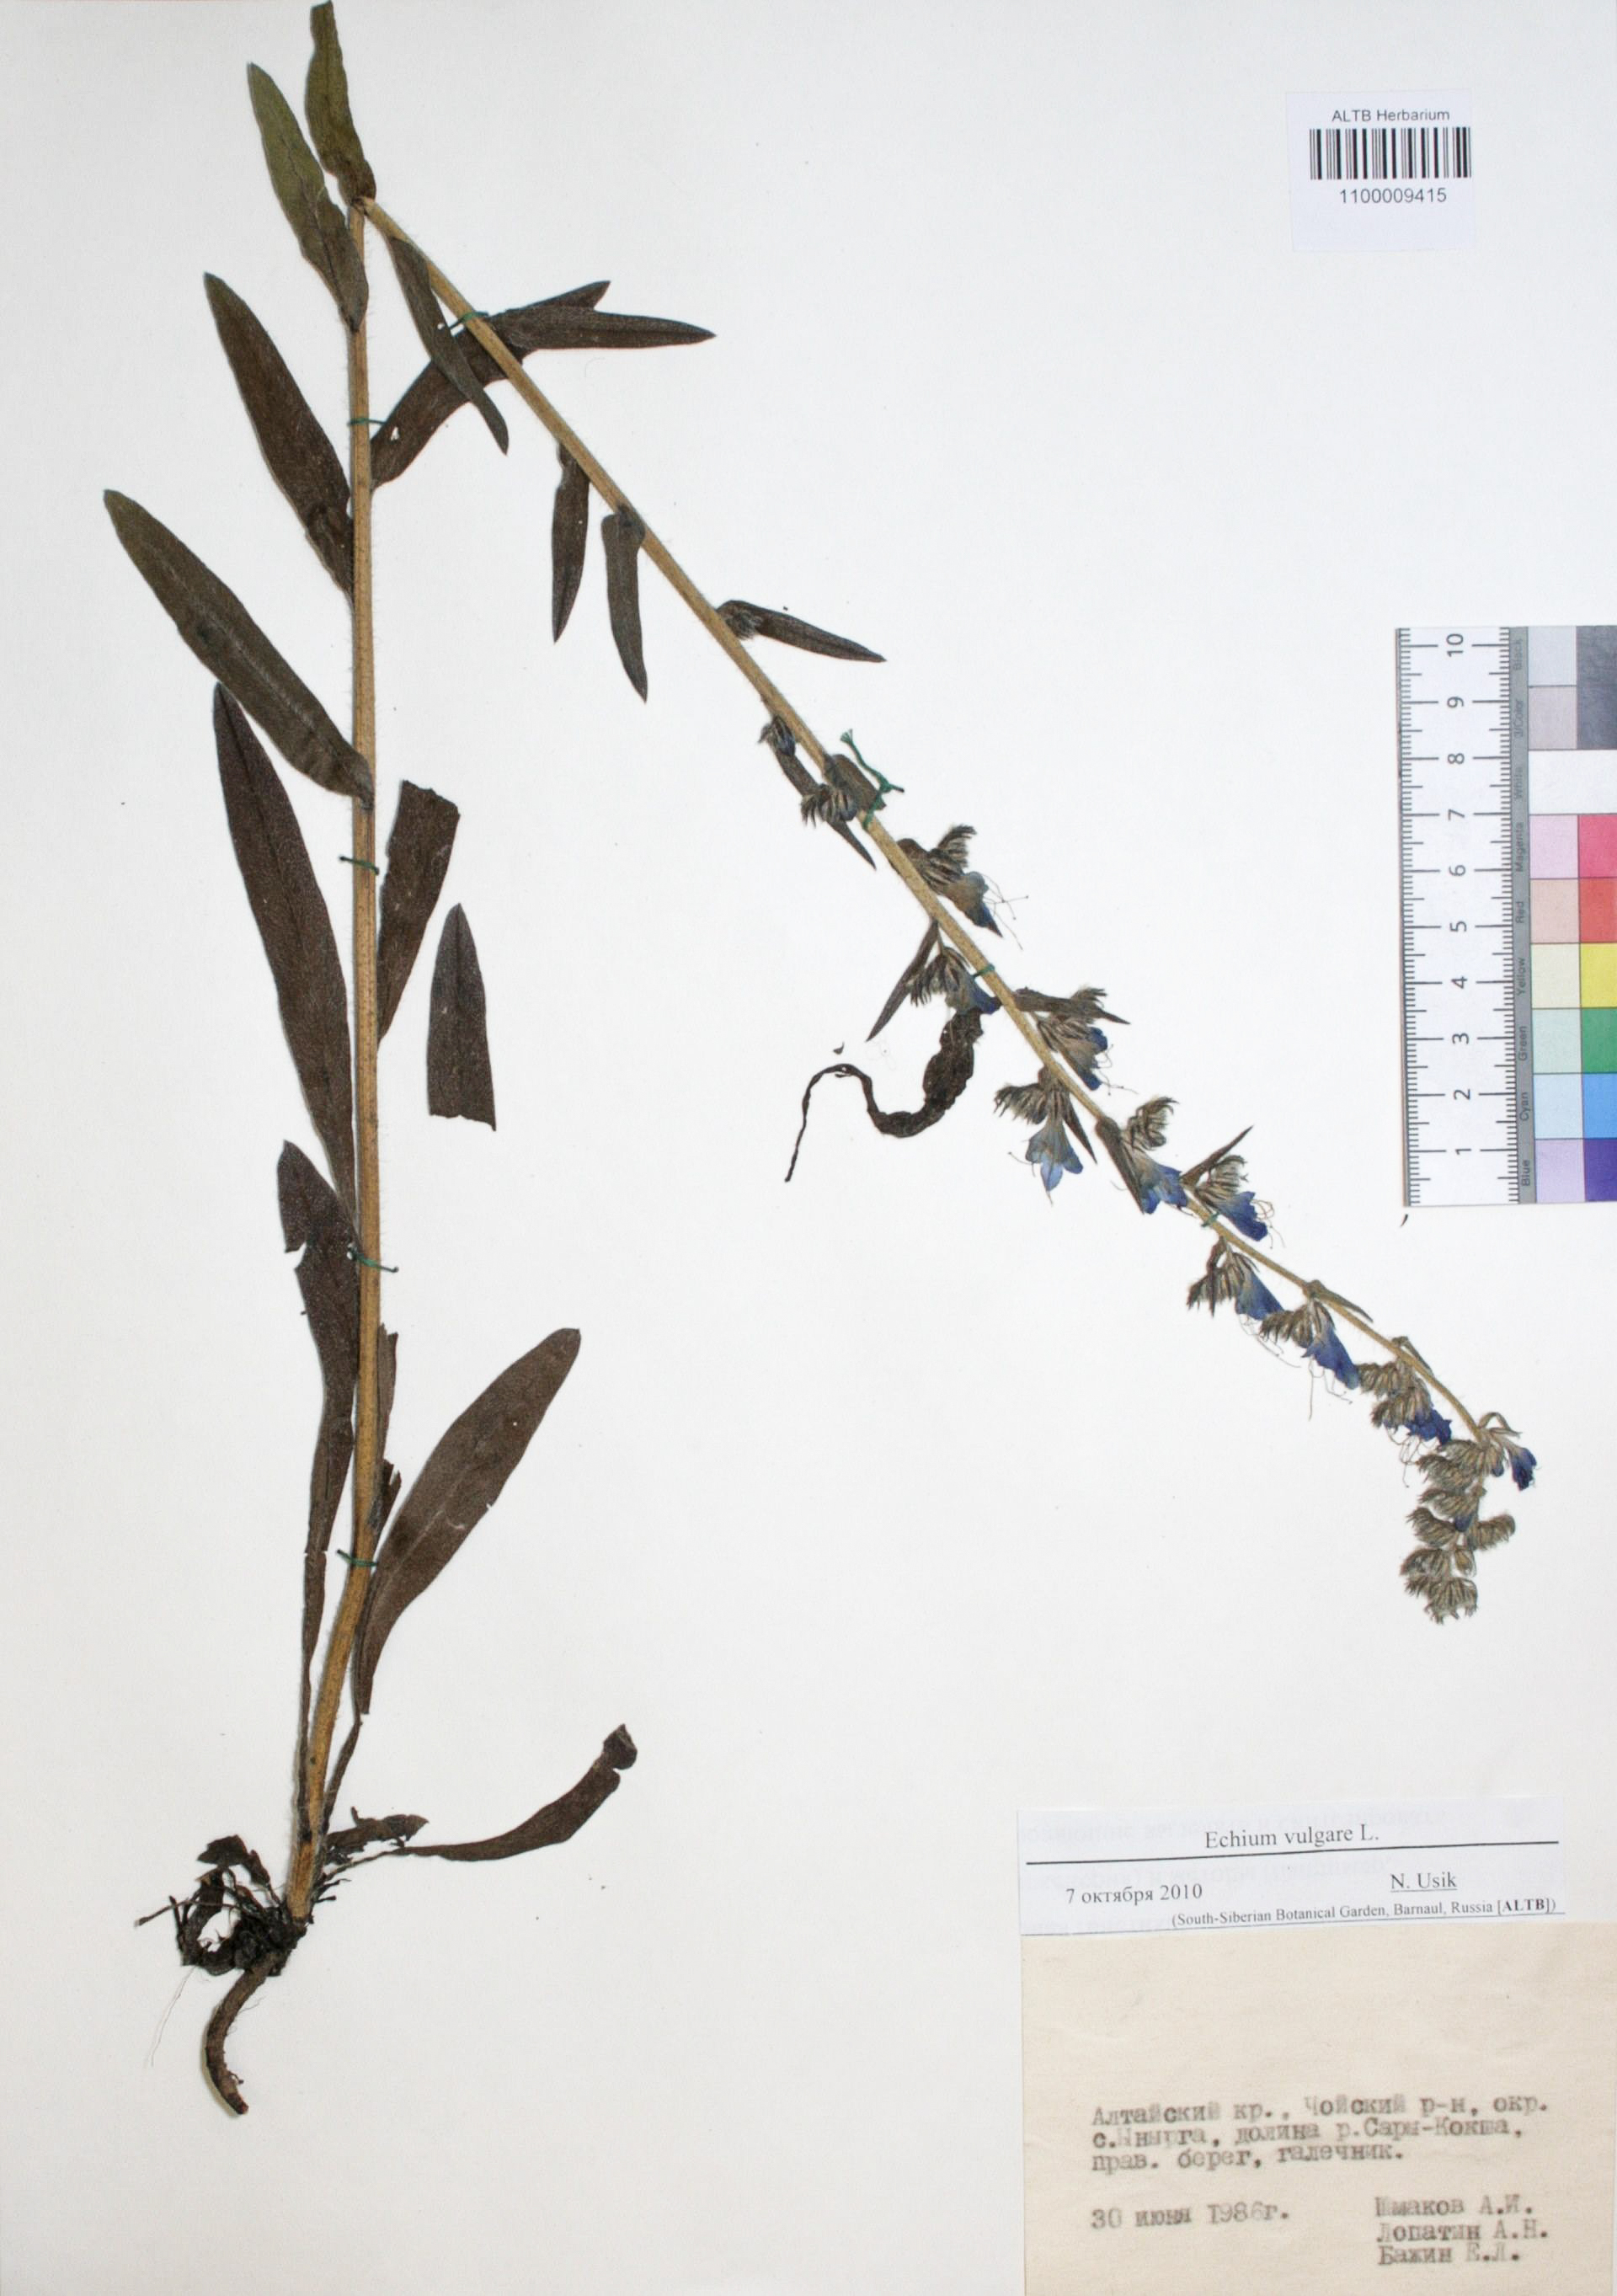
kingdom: Plantae
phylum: Tracheophyta
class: Magnoliopsida
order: Boraginales
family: Boraginaceae
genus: Echium
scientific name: Echium vulgare
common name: Common viper's bugloss
